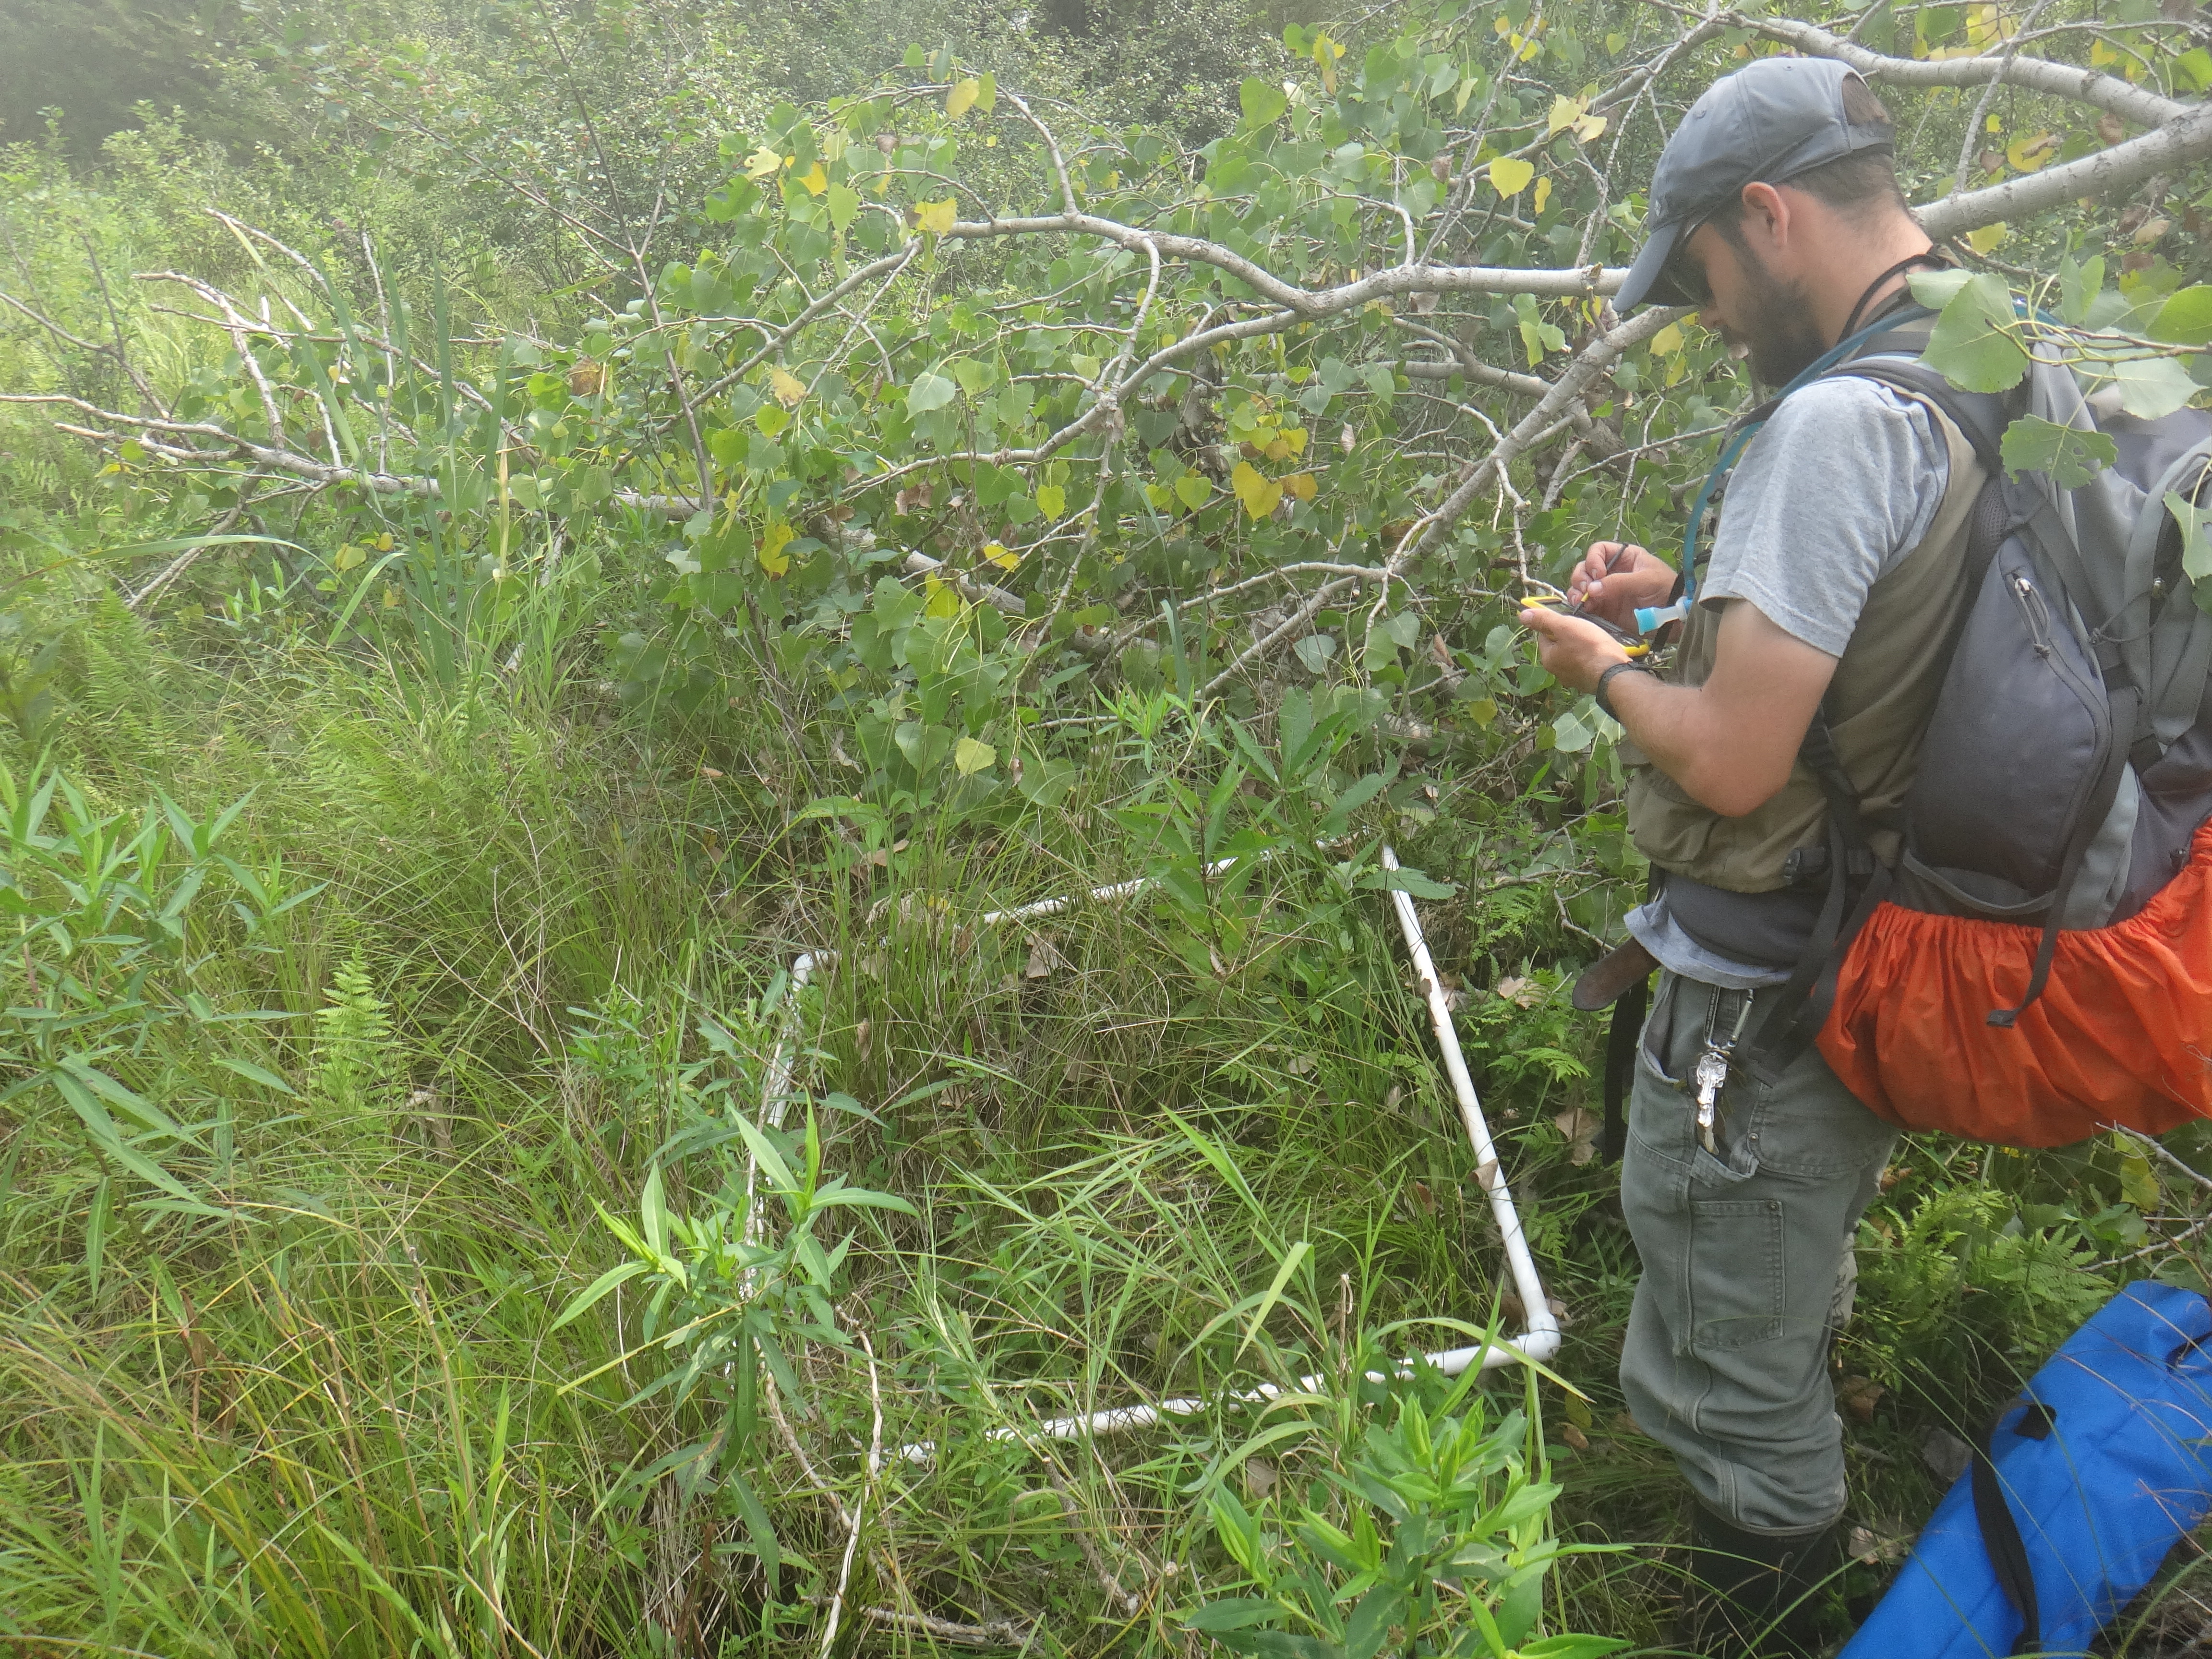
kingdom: Plantae
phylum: Tracheophyta
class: Liliopsida
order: Poales
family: Poaceae
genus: Muhlenbergia
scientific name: Muhlenbergia glomerata
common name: Bog muhly
